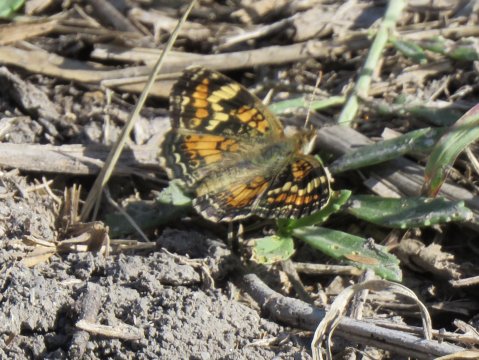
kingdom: Animalia
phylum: Arthropoda
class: Insecta
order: Lepidoptera
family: Nymphalidae
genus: Phyciodes
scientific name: Phyciodes phaon
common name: Phaon Crescent
